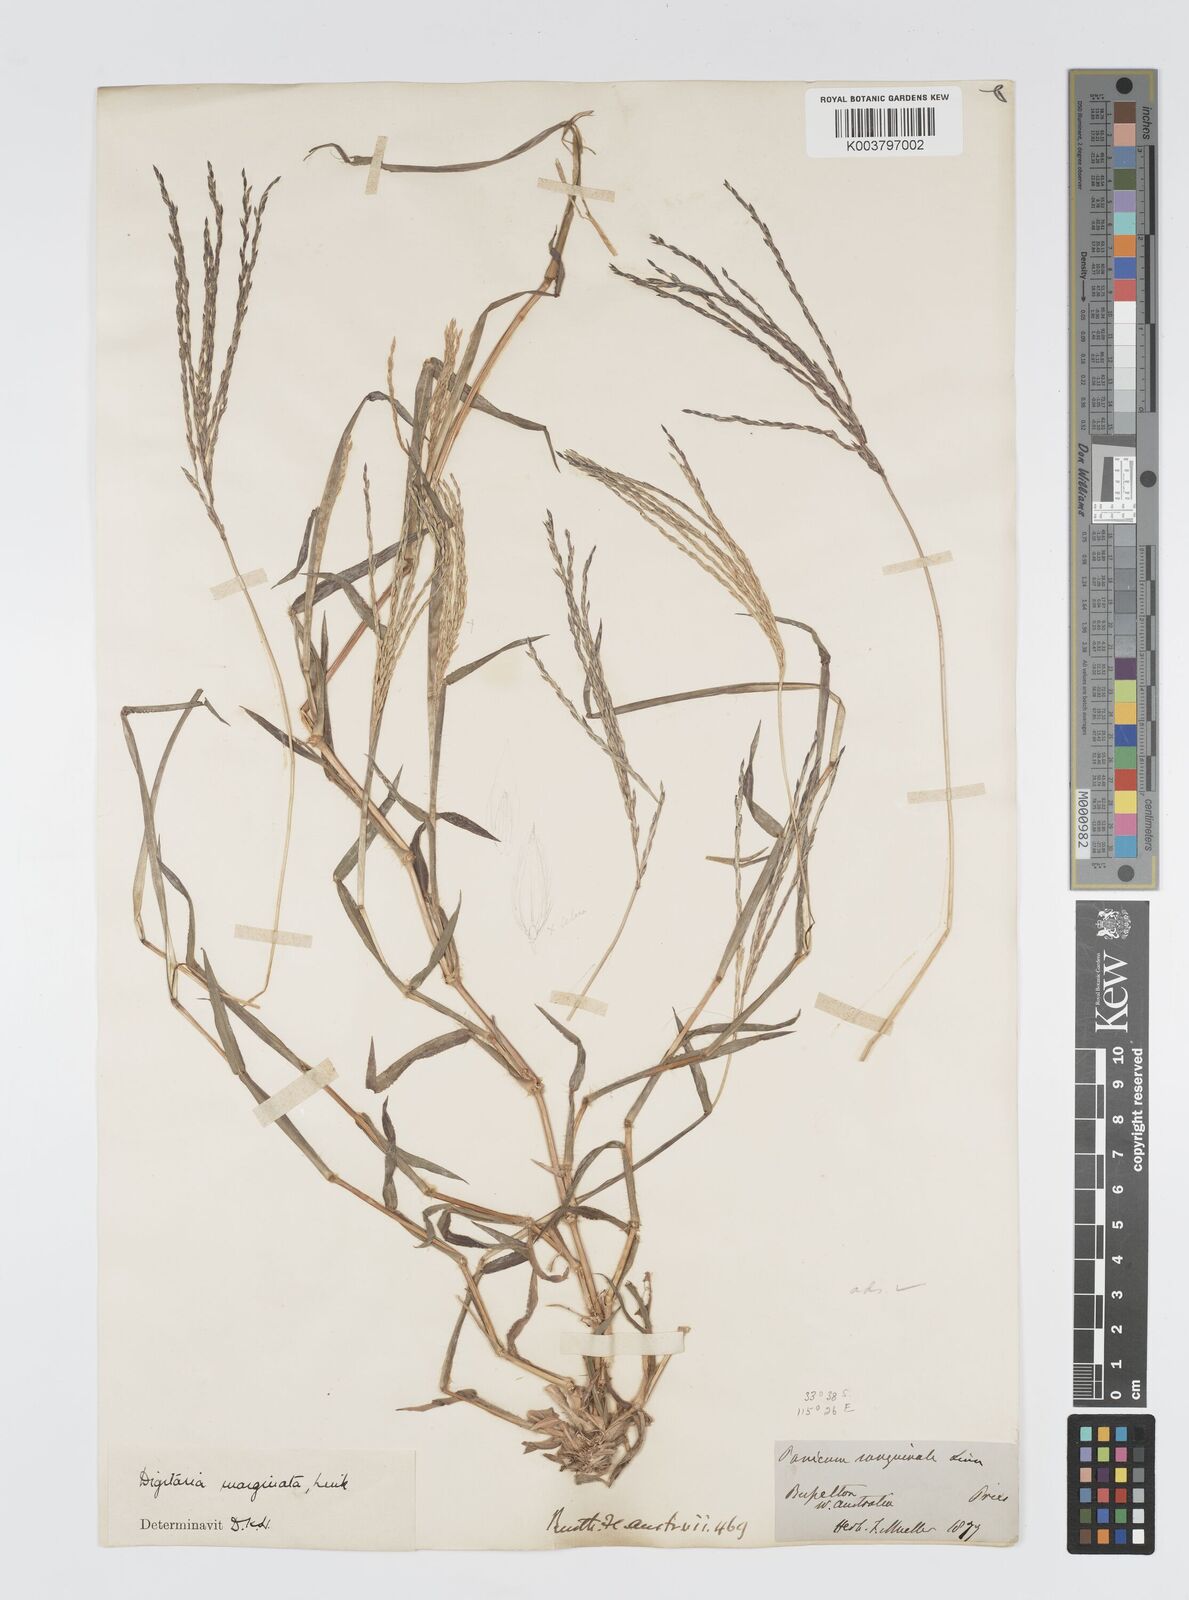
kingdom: Plantae
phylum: Tracheophyta
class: Liliopsida
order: Poales
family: Poaceae
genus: Digitaria
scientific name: Digitaria ciliaris
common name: Tropical finger-grass
